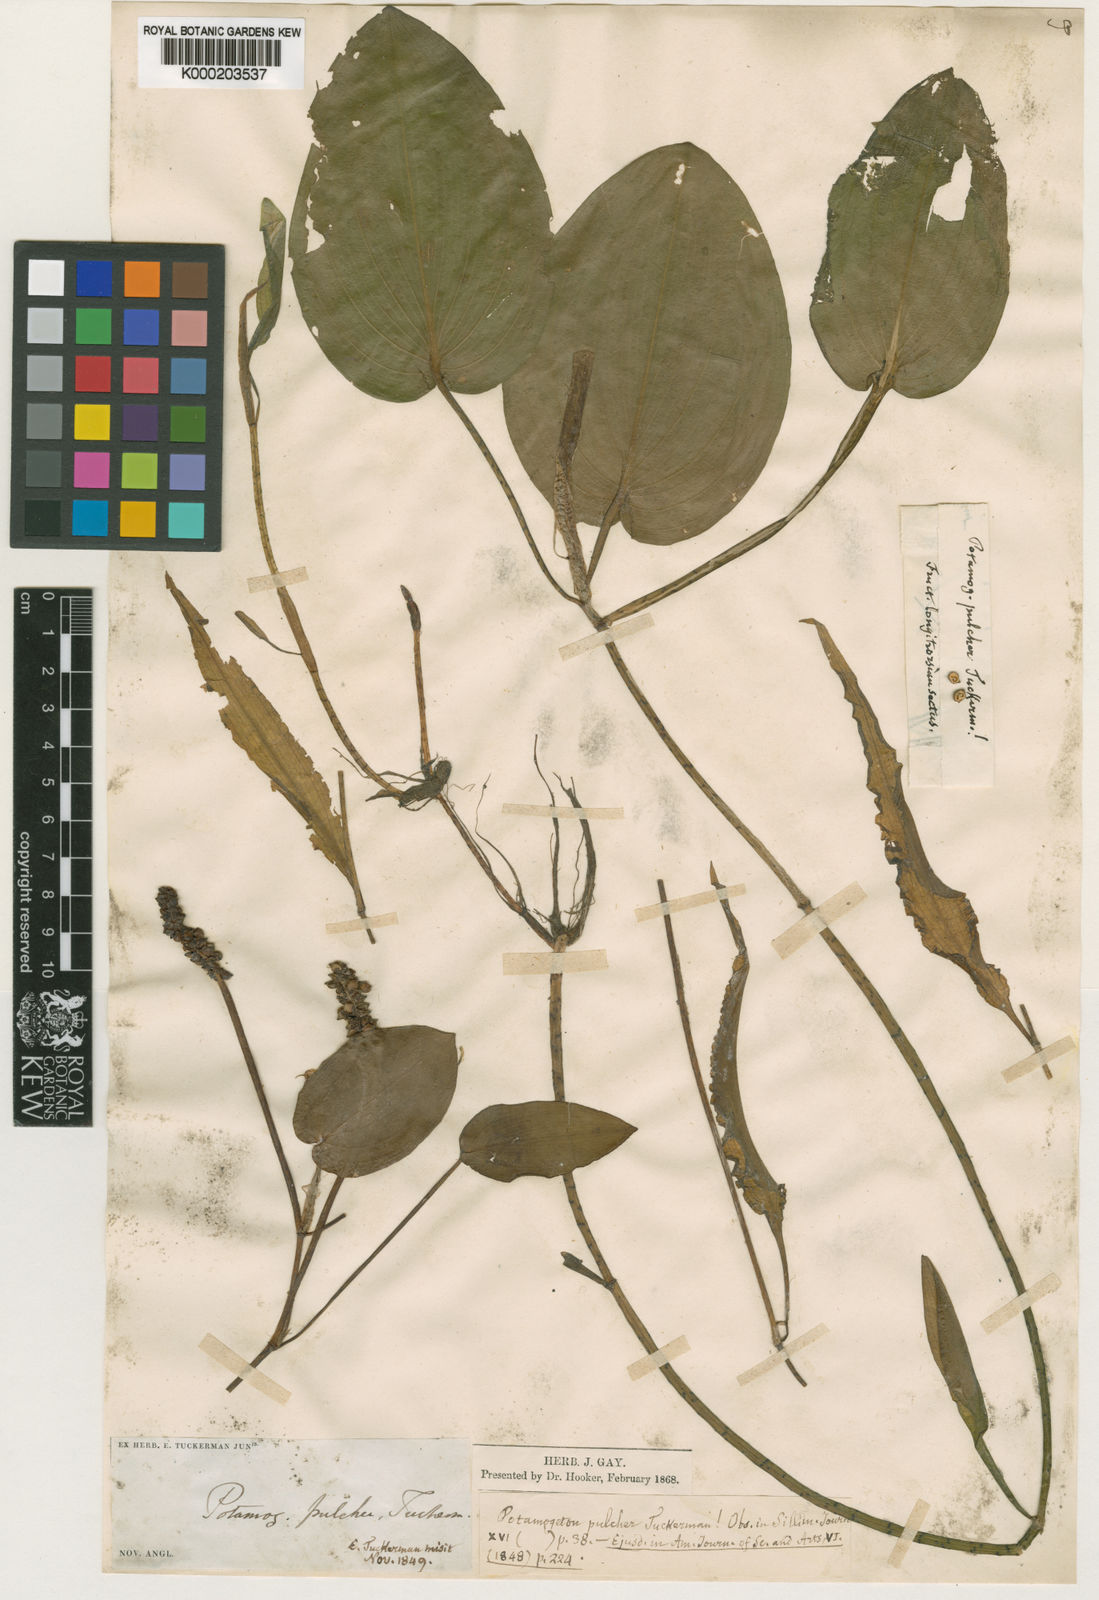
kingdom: Plantae
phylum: Tracheophyta
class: Liliopsida
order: Alismatales
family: Potamogetonaceae
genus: Potamogeton
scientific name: Potamogeton pulcher
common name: Heart-leaved pondweed
